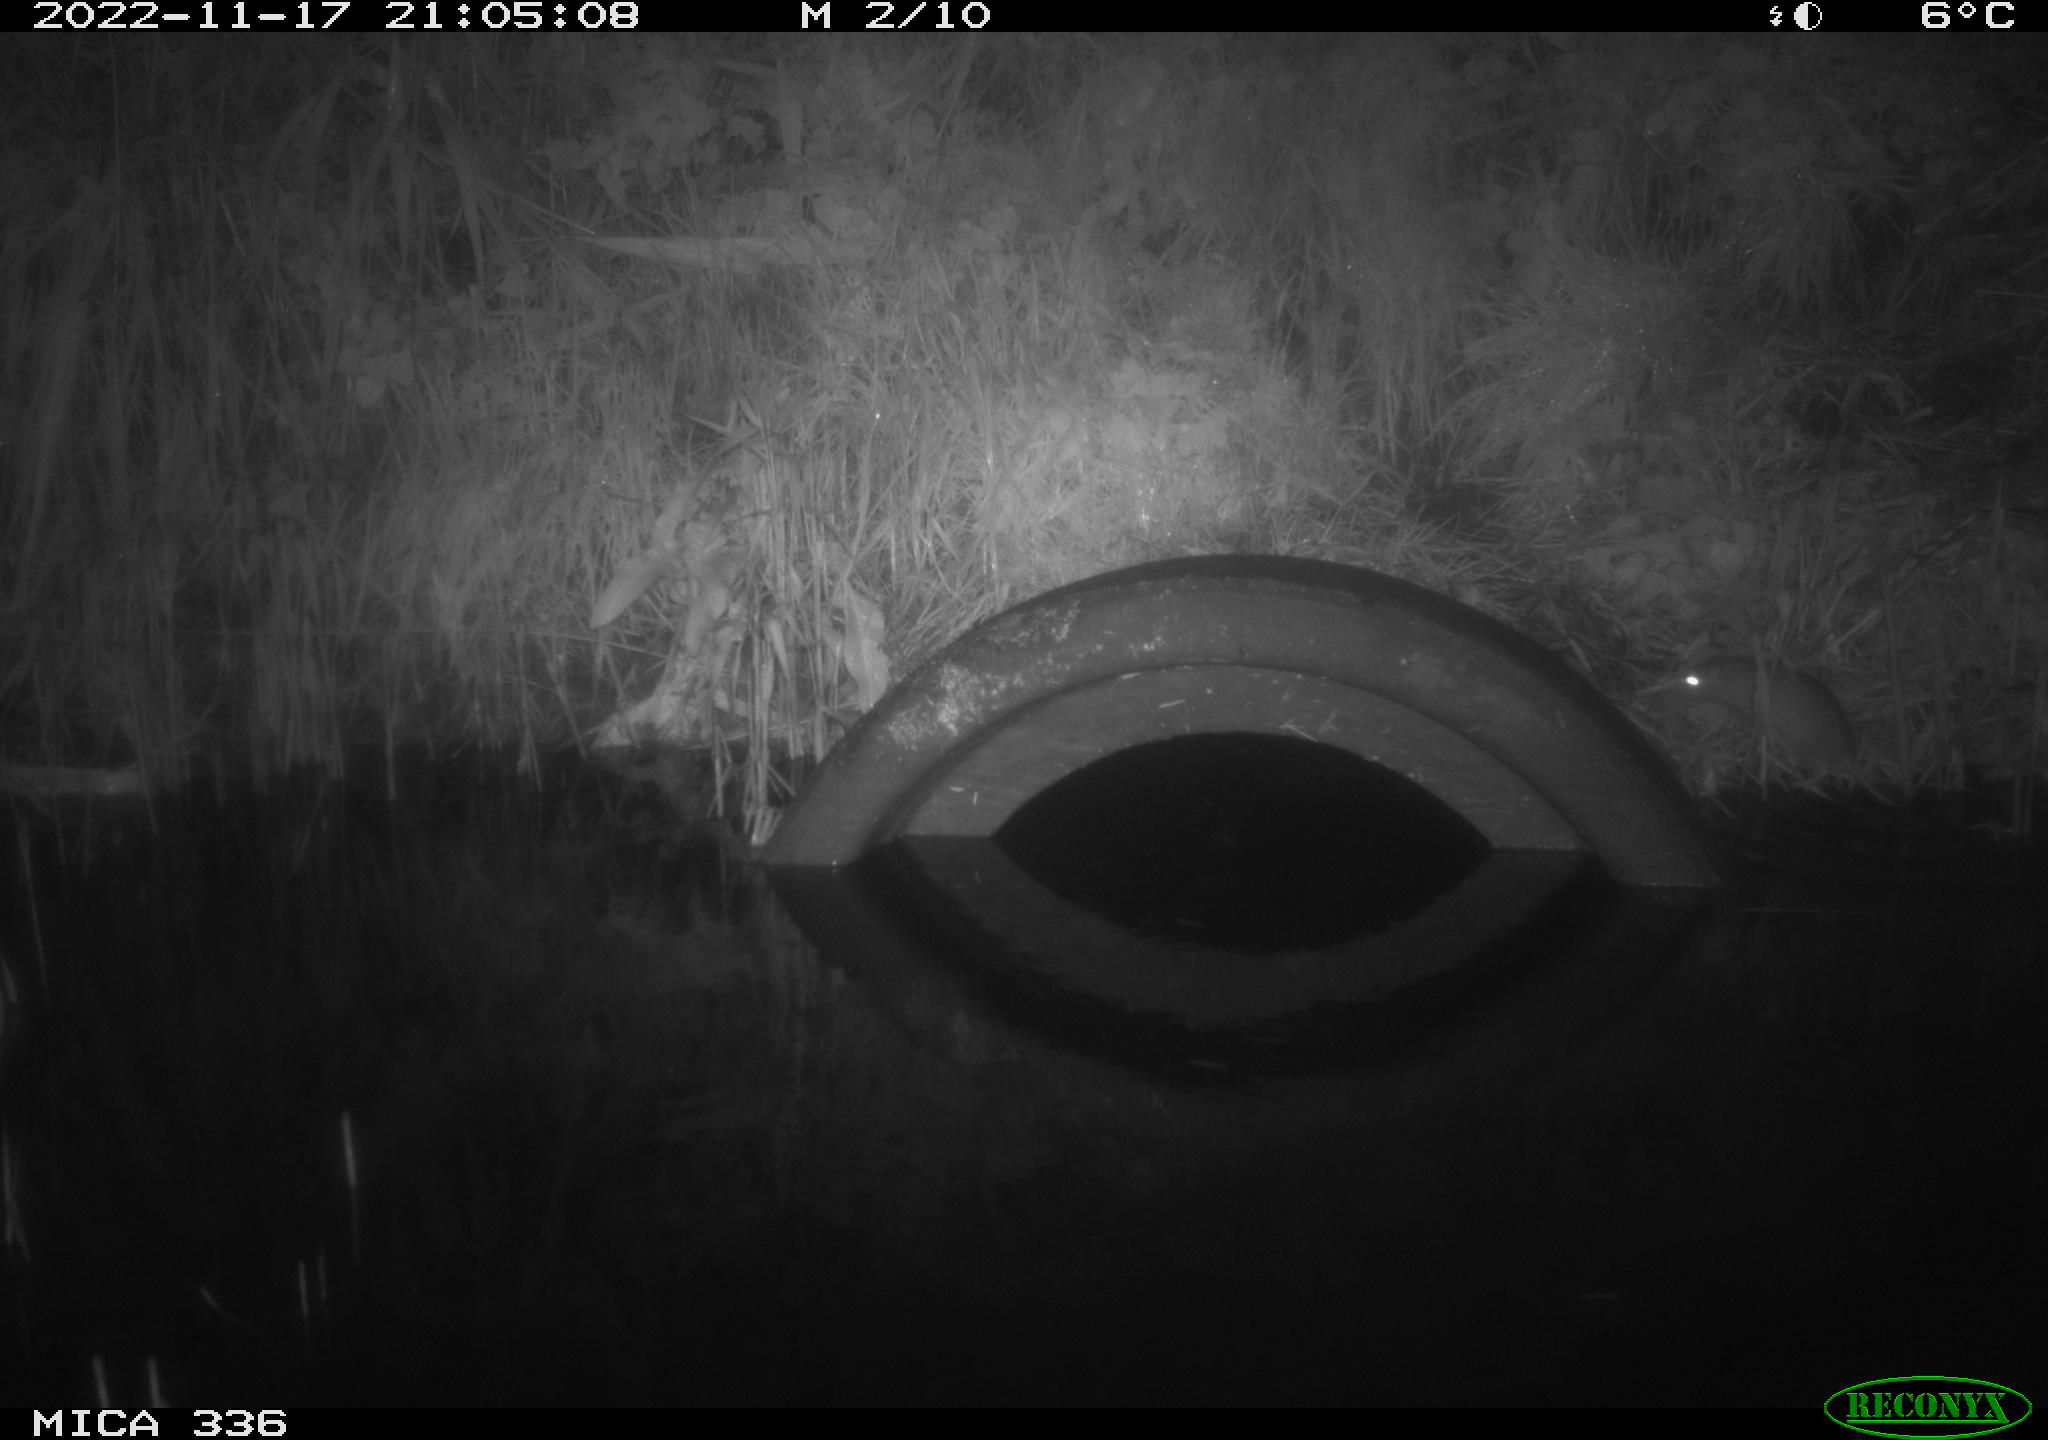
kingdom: Animalia
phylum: Chordata
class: Mammalia
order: Rodentia
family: Muridae
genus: Rattus
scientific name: Rattus norvegicus
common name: Brown rat
